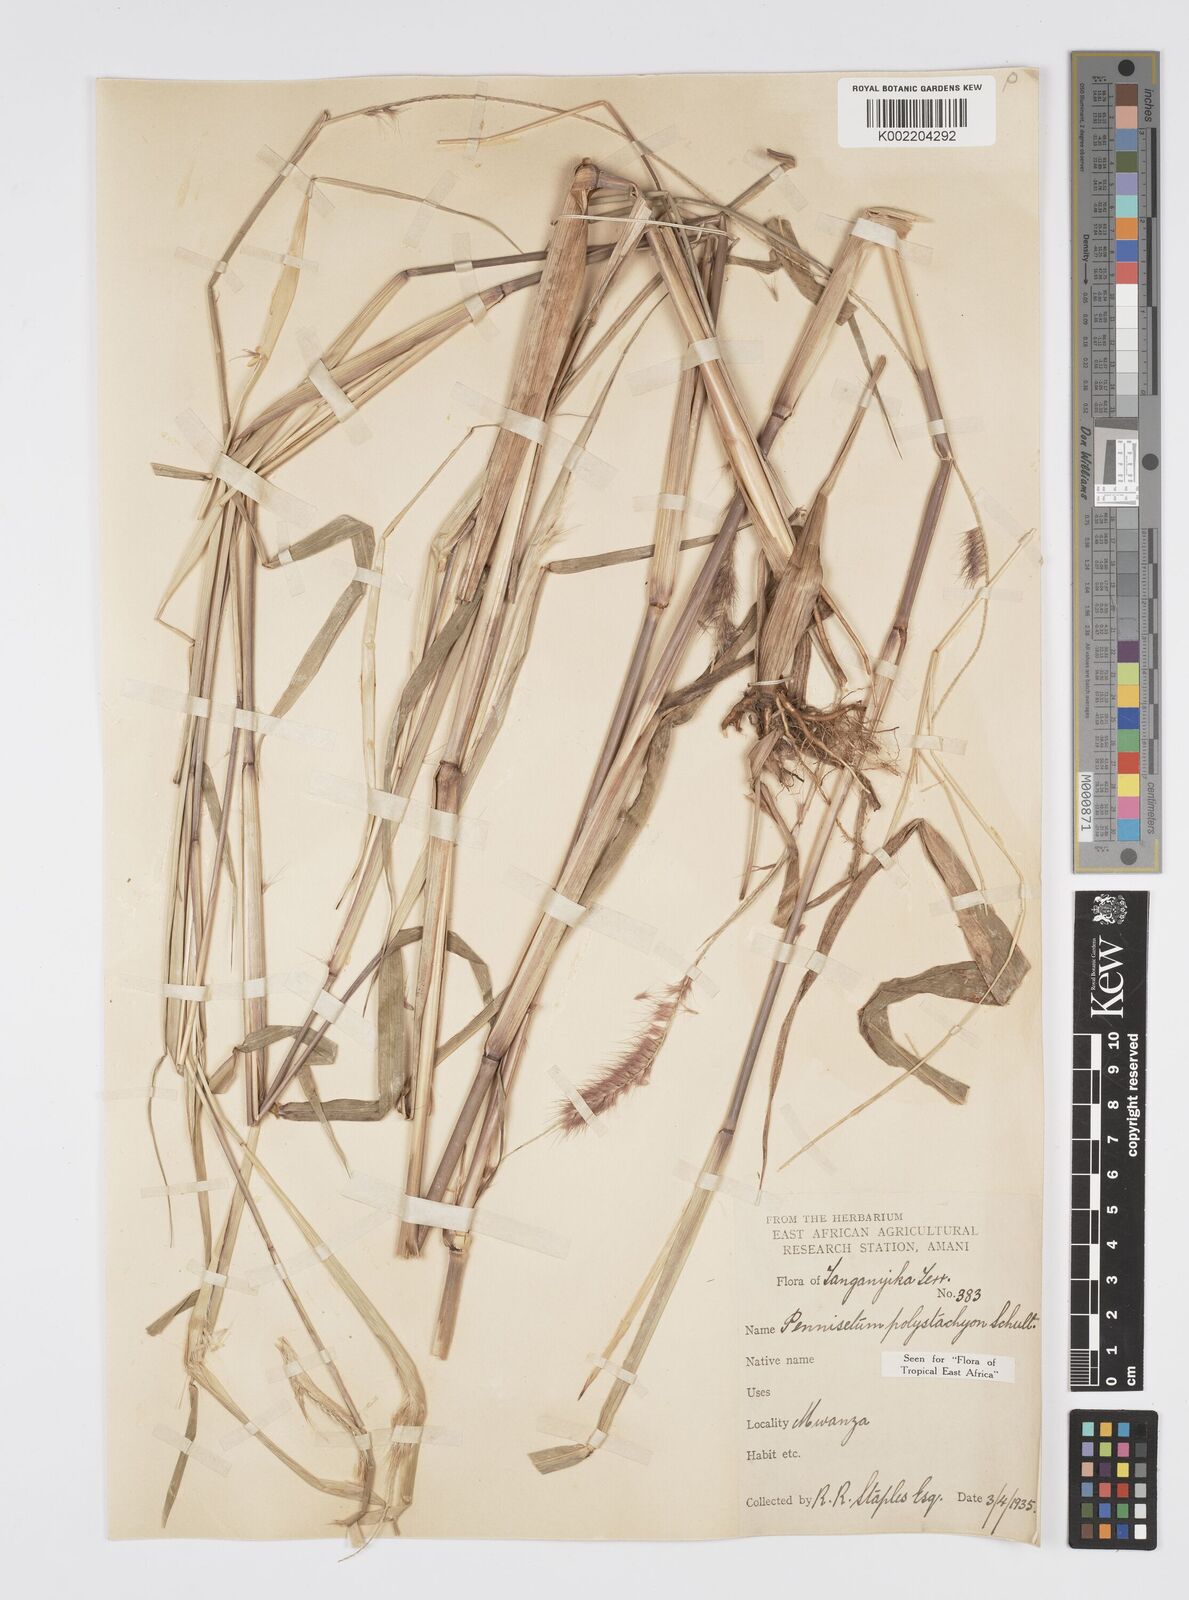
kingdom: Plantae
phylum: Tracheophyta
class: Liliopsida
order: Poales
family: Poaceae
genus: Setaria
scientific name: Setaria parviflora
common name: Knotroot bristle-grass
